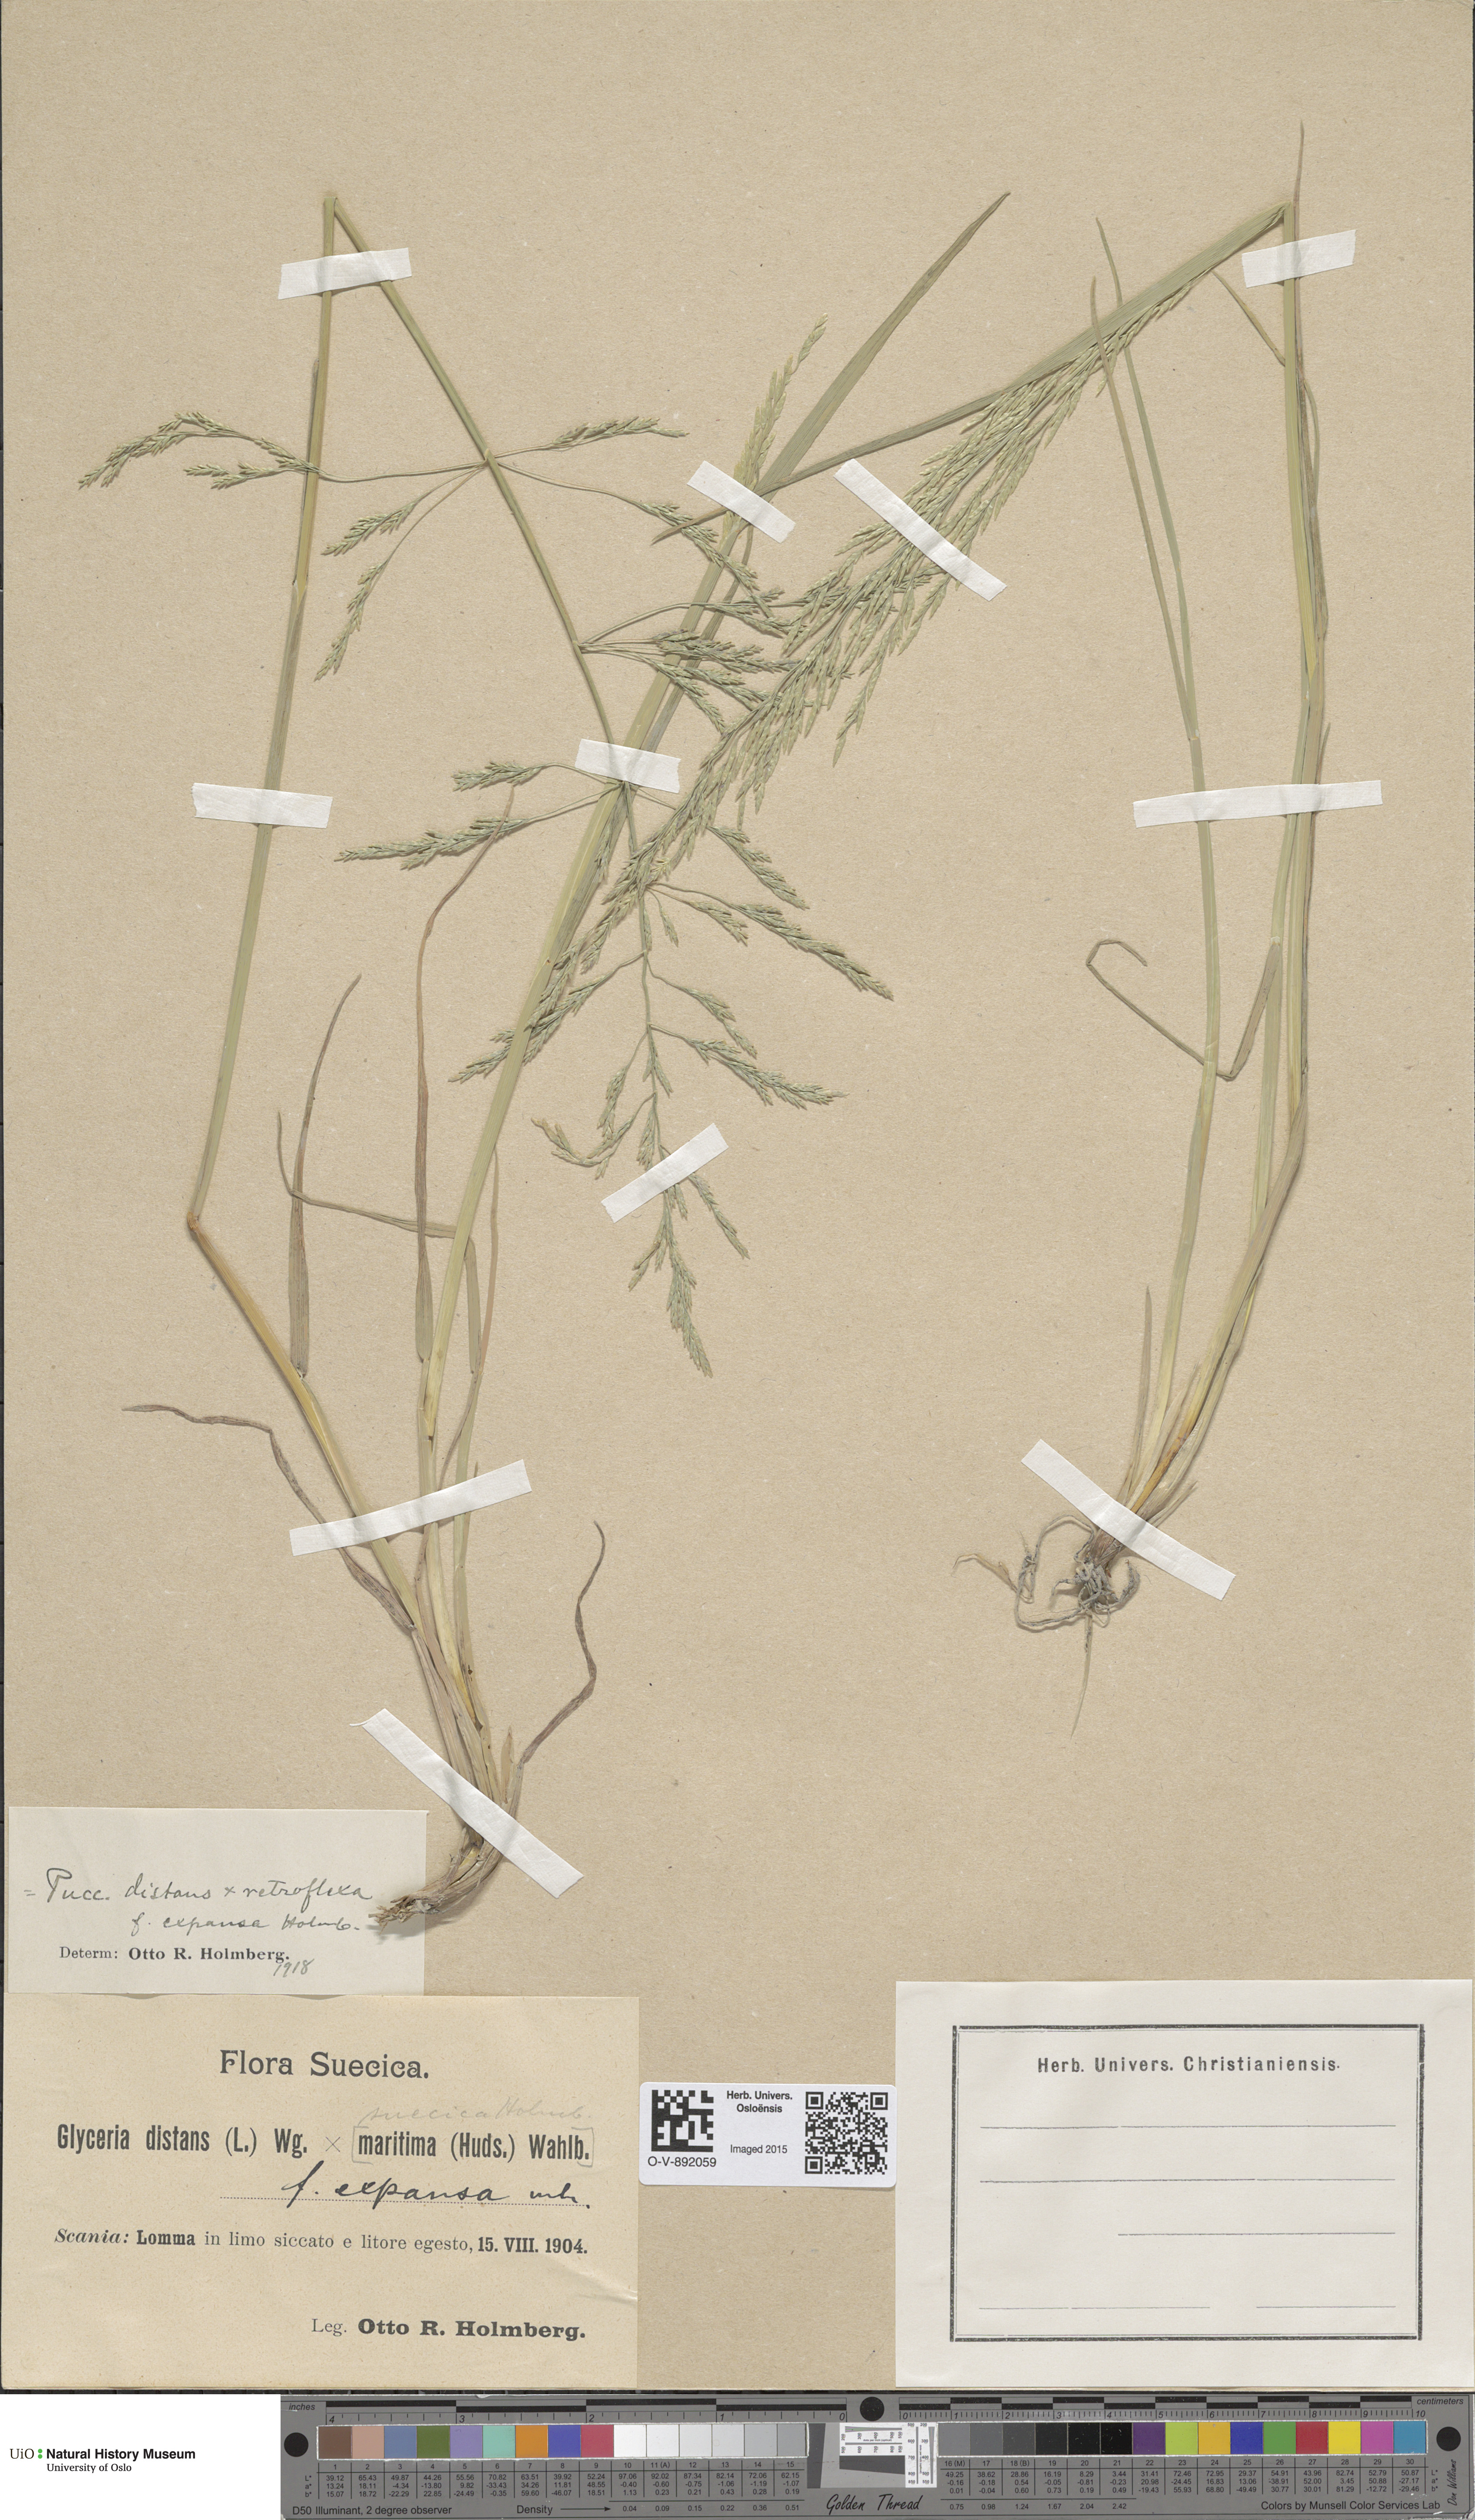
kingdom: Plantae
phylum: Tracheophyta
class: Liliopsida
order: Poales
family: Poaceae
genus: Puccinellia
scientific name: Puccinellia
